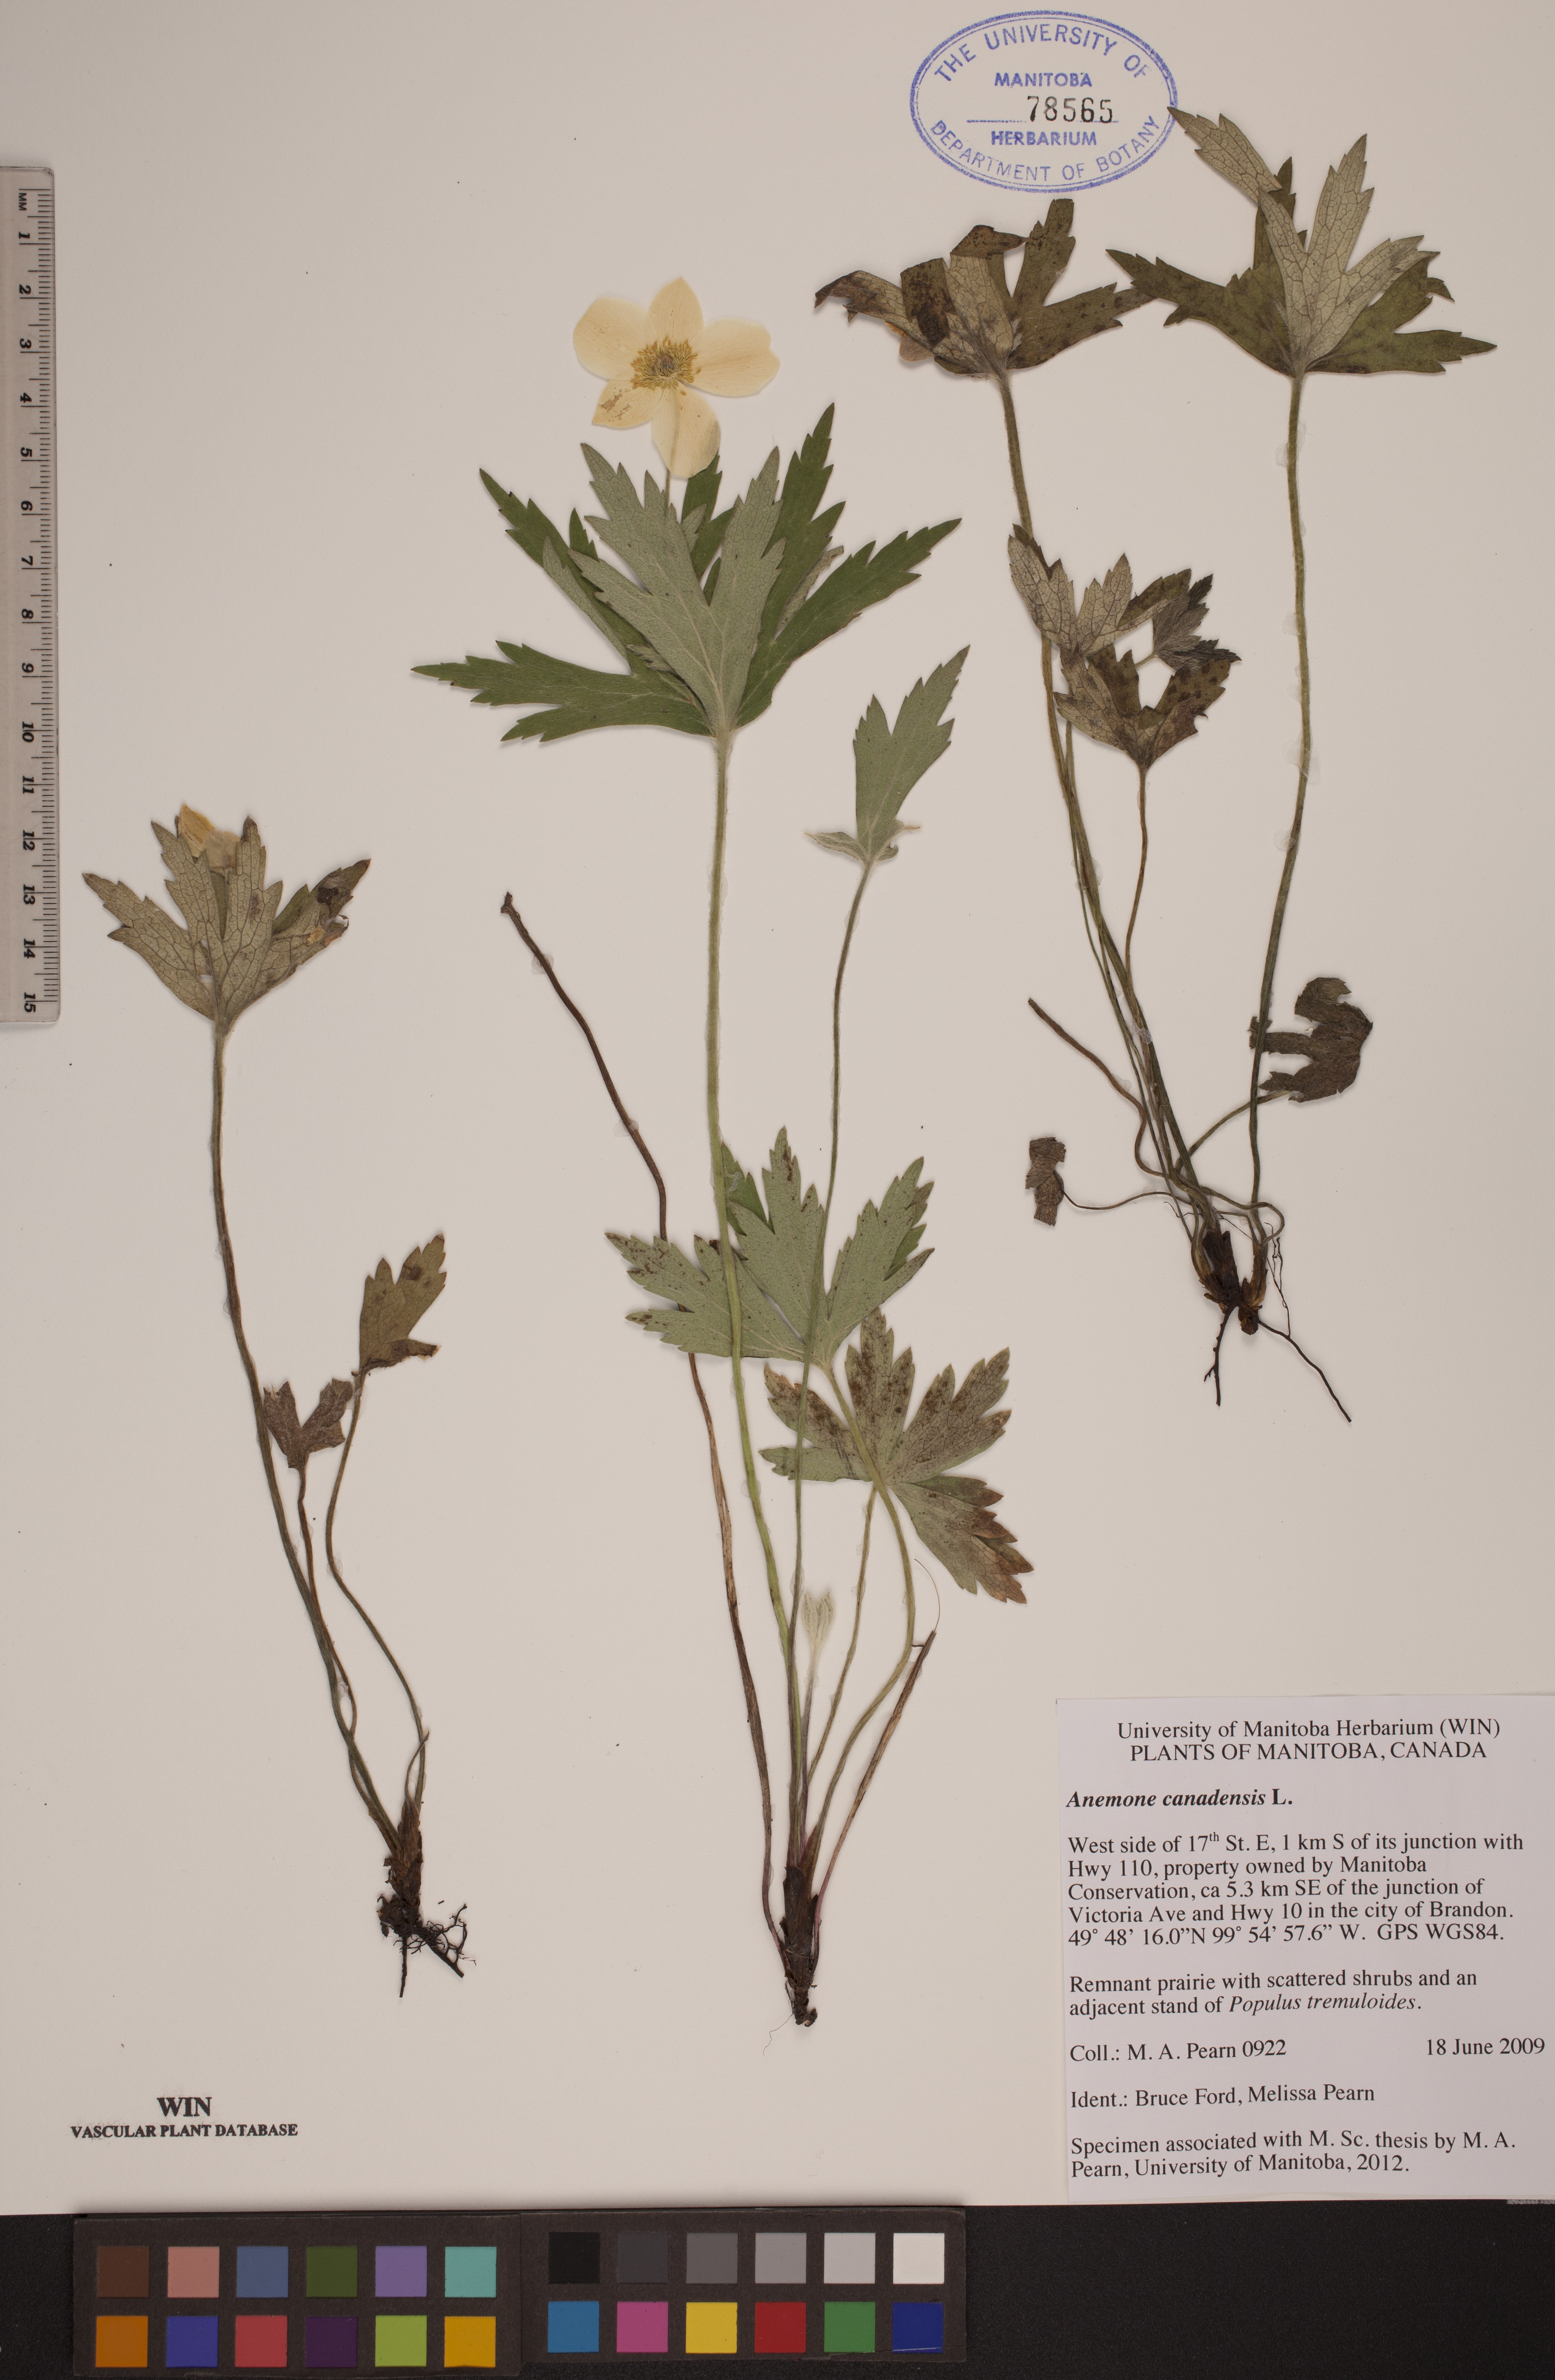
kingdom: Plantae
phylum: Tracheophyta
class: Magnoliopsida
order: Ranunculales
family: Ranunculaceae
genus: Anemonastrum
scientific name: Anemonastrum canadense
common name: Canada anemone
